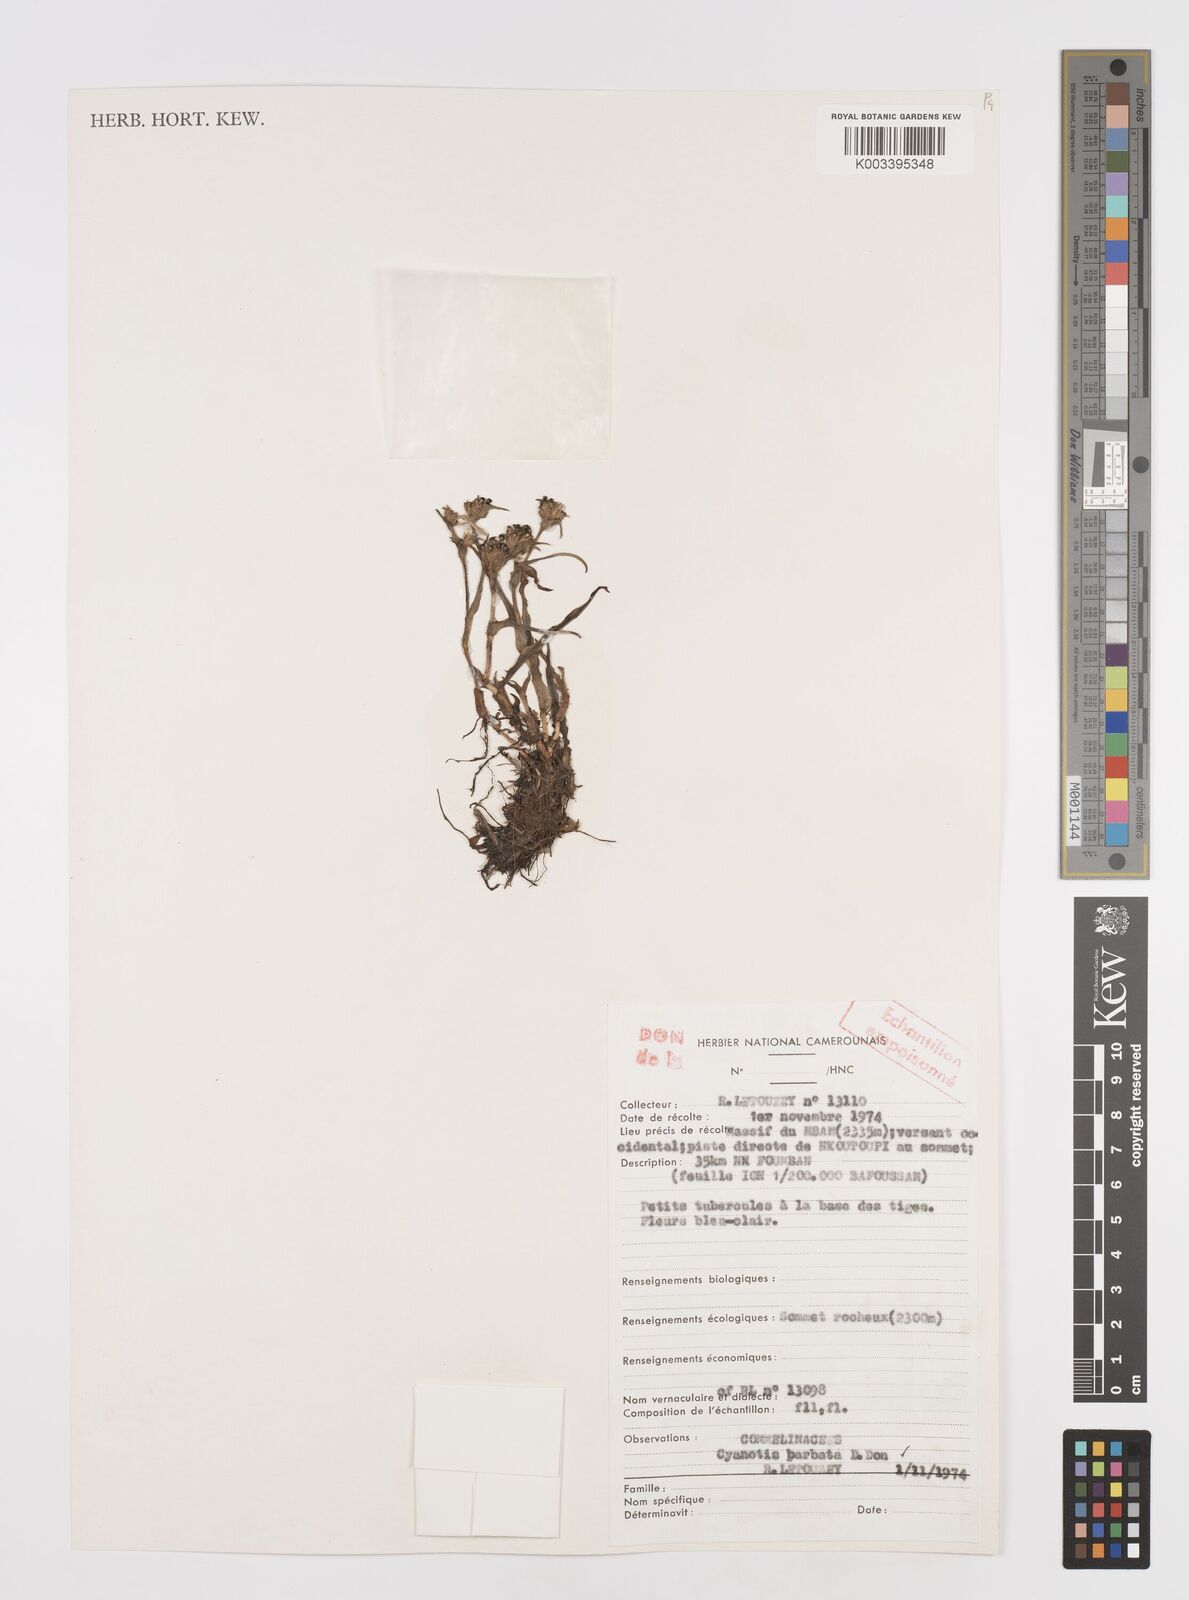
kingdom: Plantae
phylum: Tracheophyta
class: Liliopsida
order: Commelinales
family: Commelinaceae
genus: Cyanotis
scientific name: Cyanotis vaga
